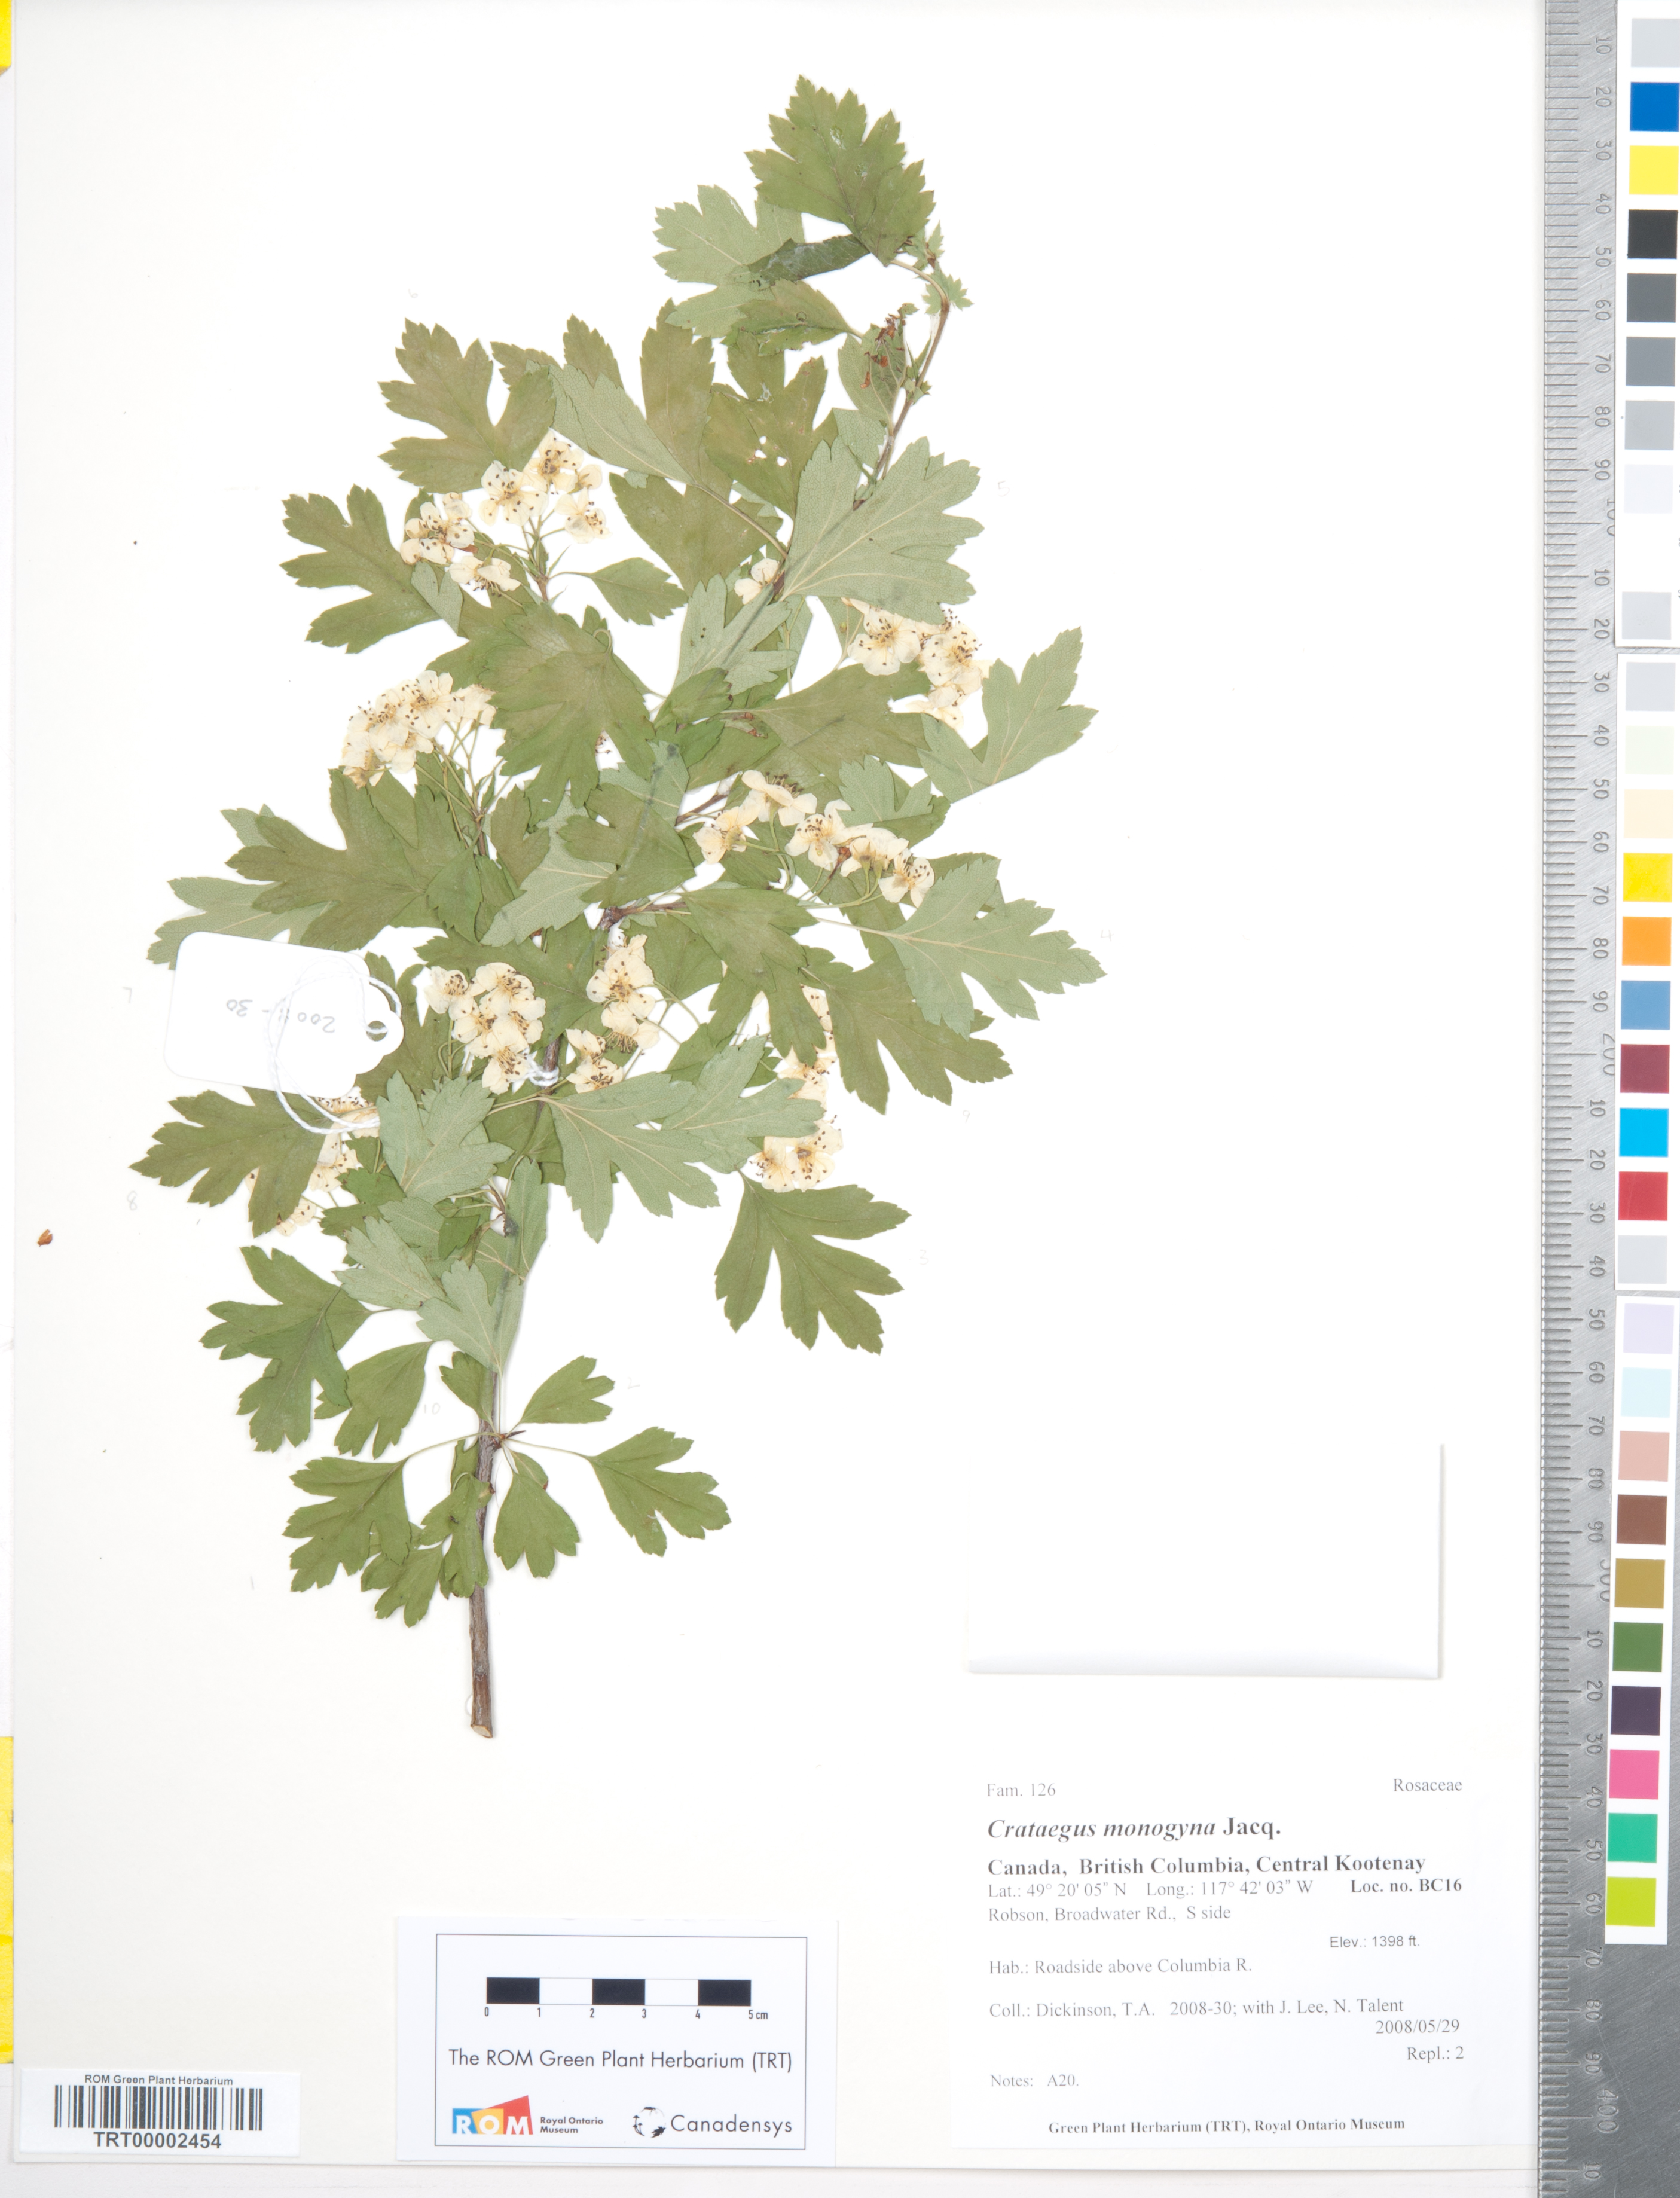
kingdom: Plantae
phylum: Tracheophyta
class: Magnoliopsida
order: Rosales
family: Rosaceae
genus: Crataegus
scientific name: Crataegus monogyna
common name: Hawthorn
